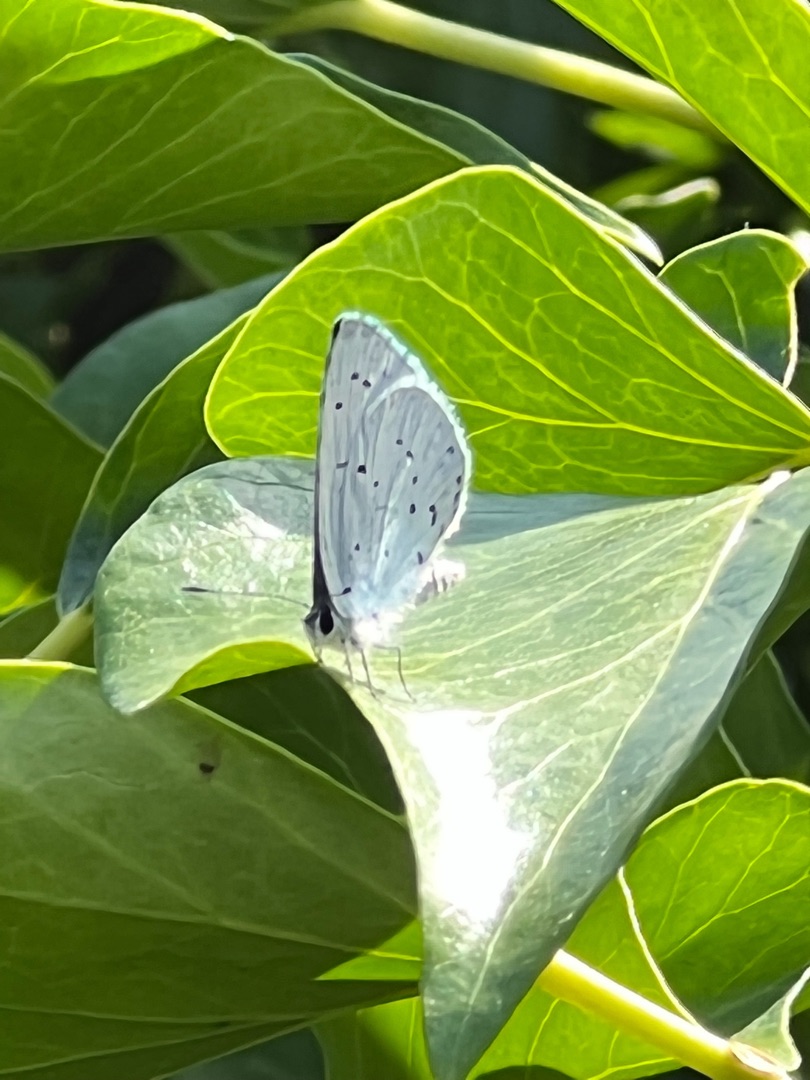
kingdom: Animalia
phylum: Arthropoda
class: Insecta
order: Lepidoptera
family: Lycaenidae
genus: Celastrina
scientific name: Celastrina argiolus
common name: Skovblåfugl
